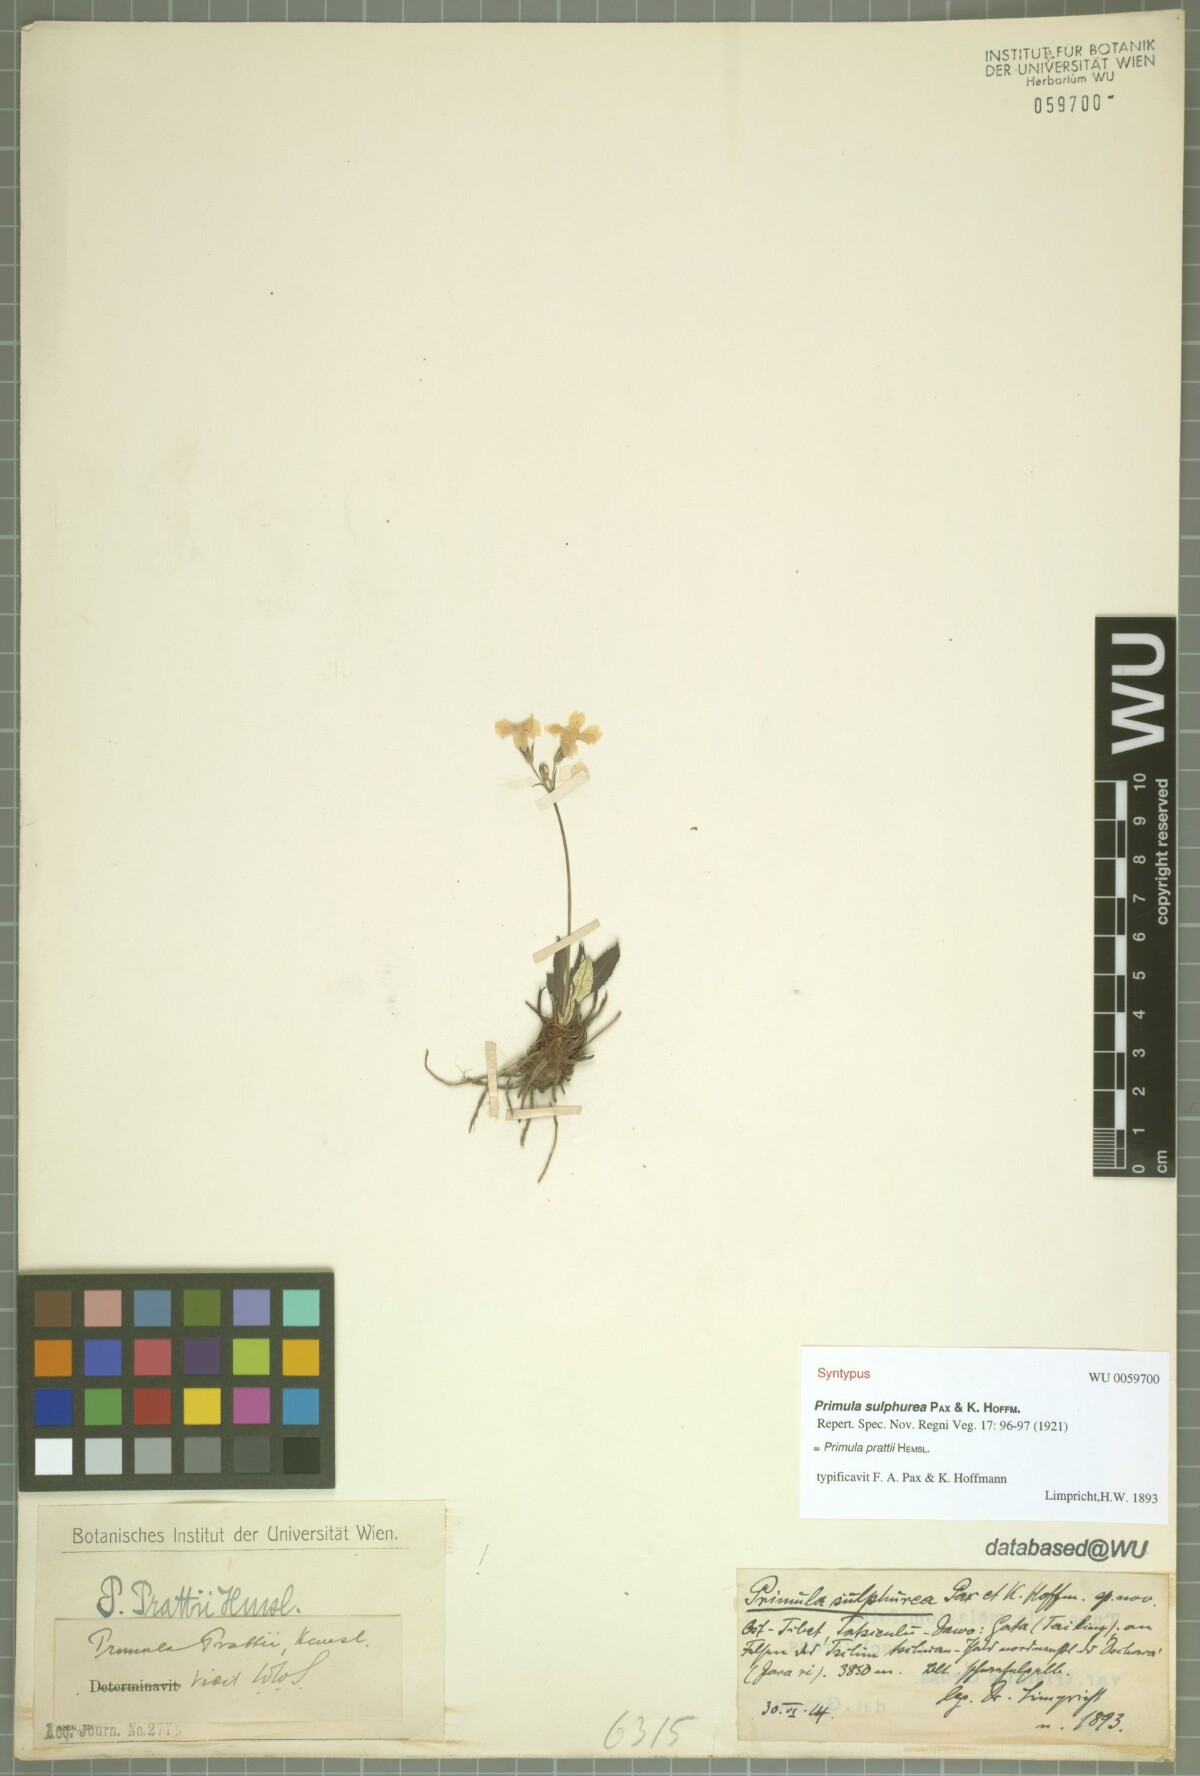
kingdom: Plantae
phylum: Tracheophyta
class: Magnoliopsida
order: Ericales
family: Primulaceae
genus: Primula
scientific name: Primula pulchella
